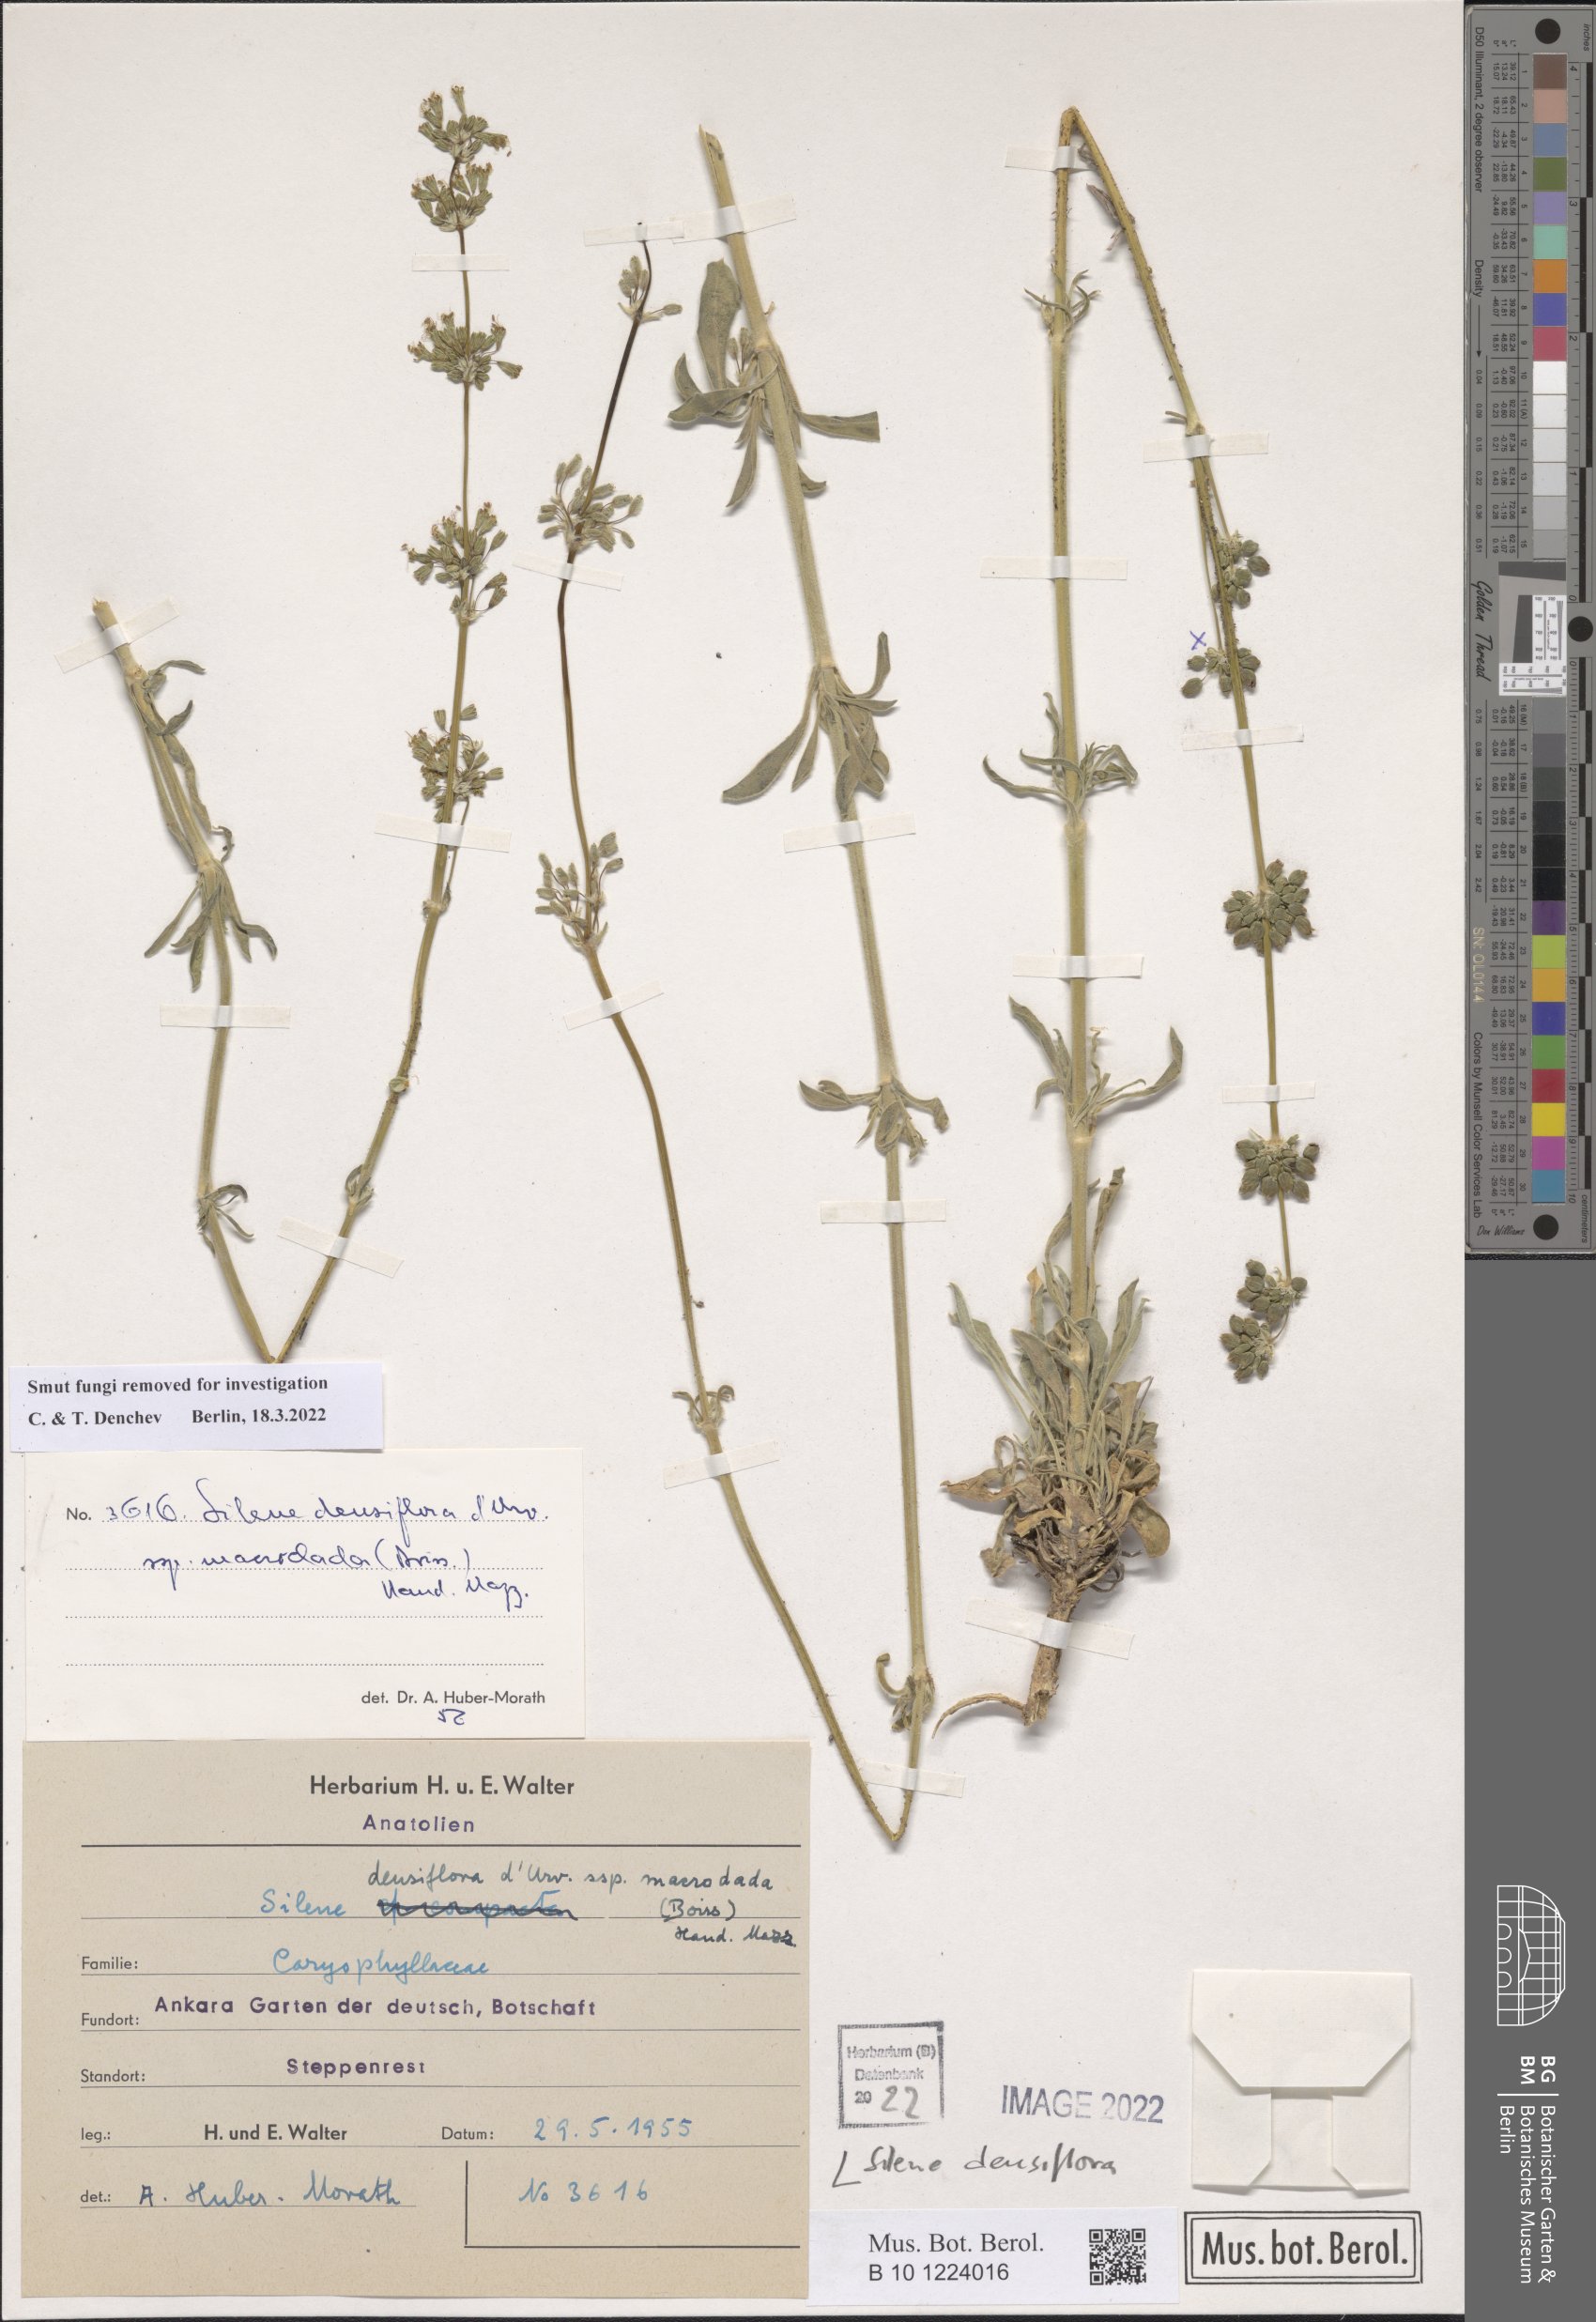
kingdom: Plantae
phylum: Tracheophyta
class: Magnoliopsida
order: Caryophyllales
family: Caryophyllaceae
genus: Silene
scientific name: Silene densiflora
